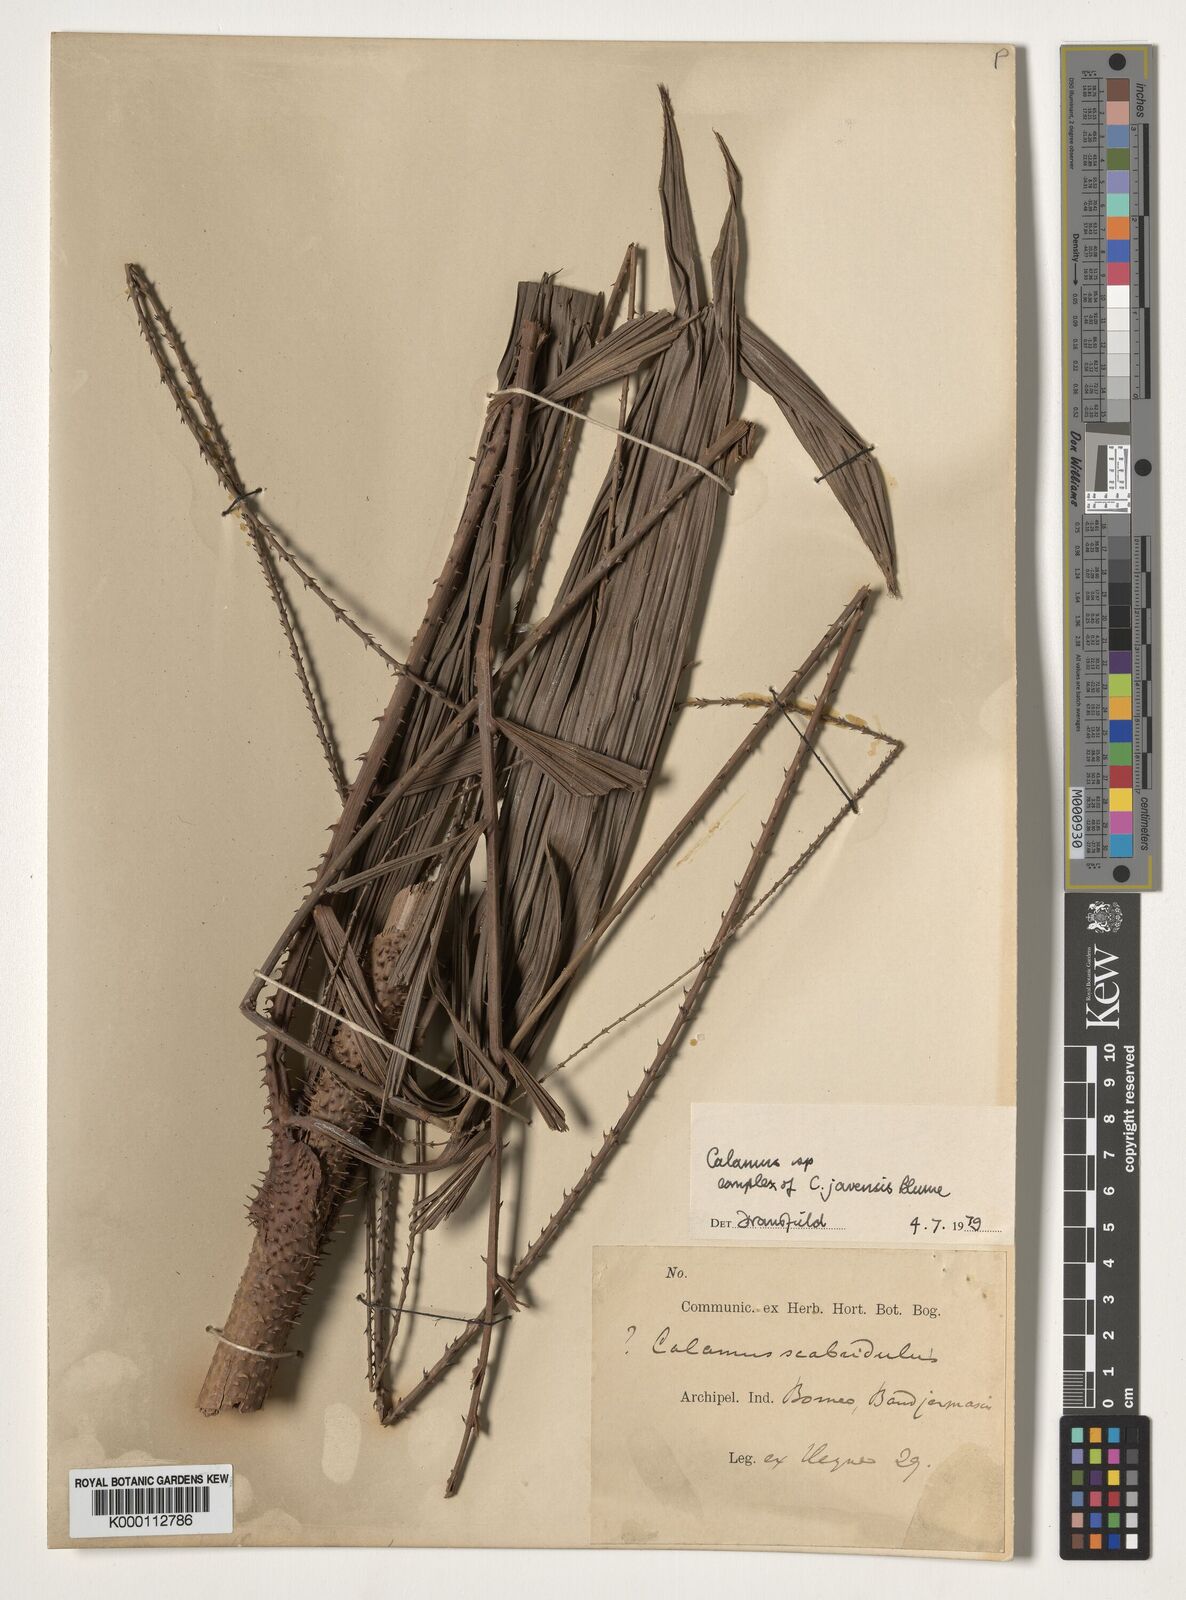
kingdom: Plantae
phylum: Tracheophyta
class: Liliopsida
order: Arecales
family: Arecaceae
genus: Calamus
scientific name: Calamus
